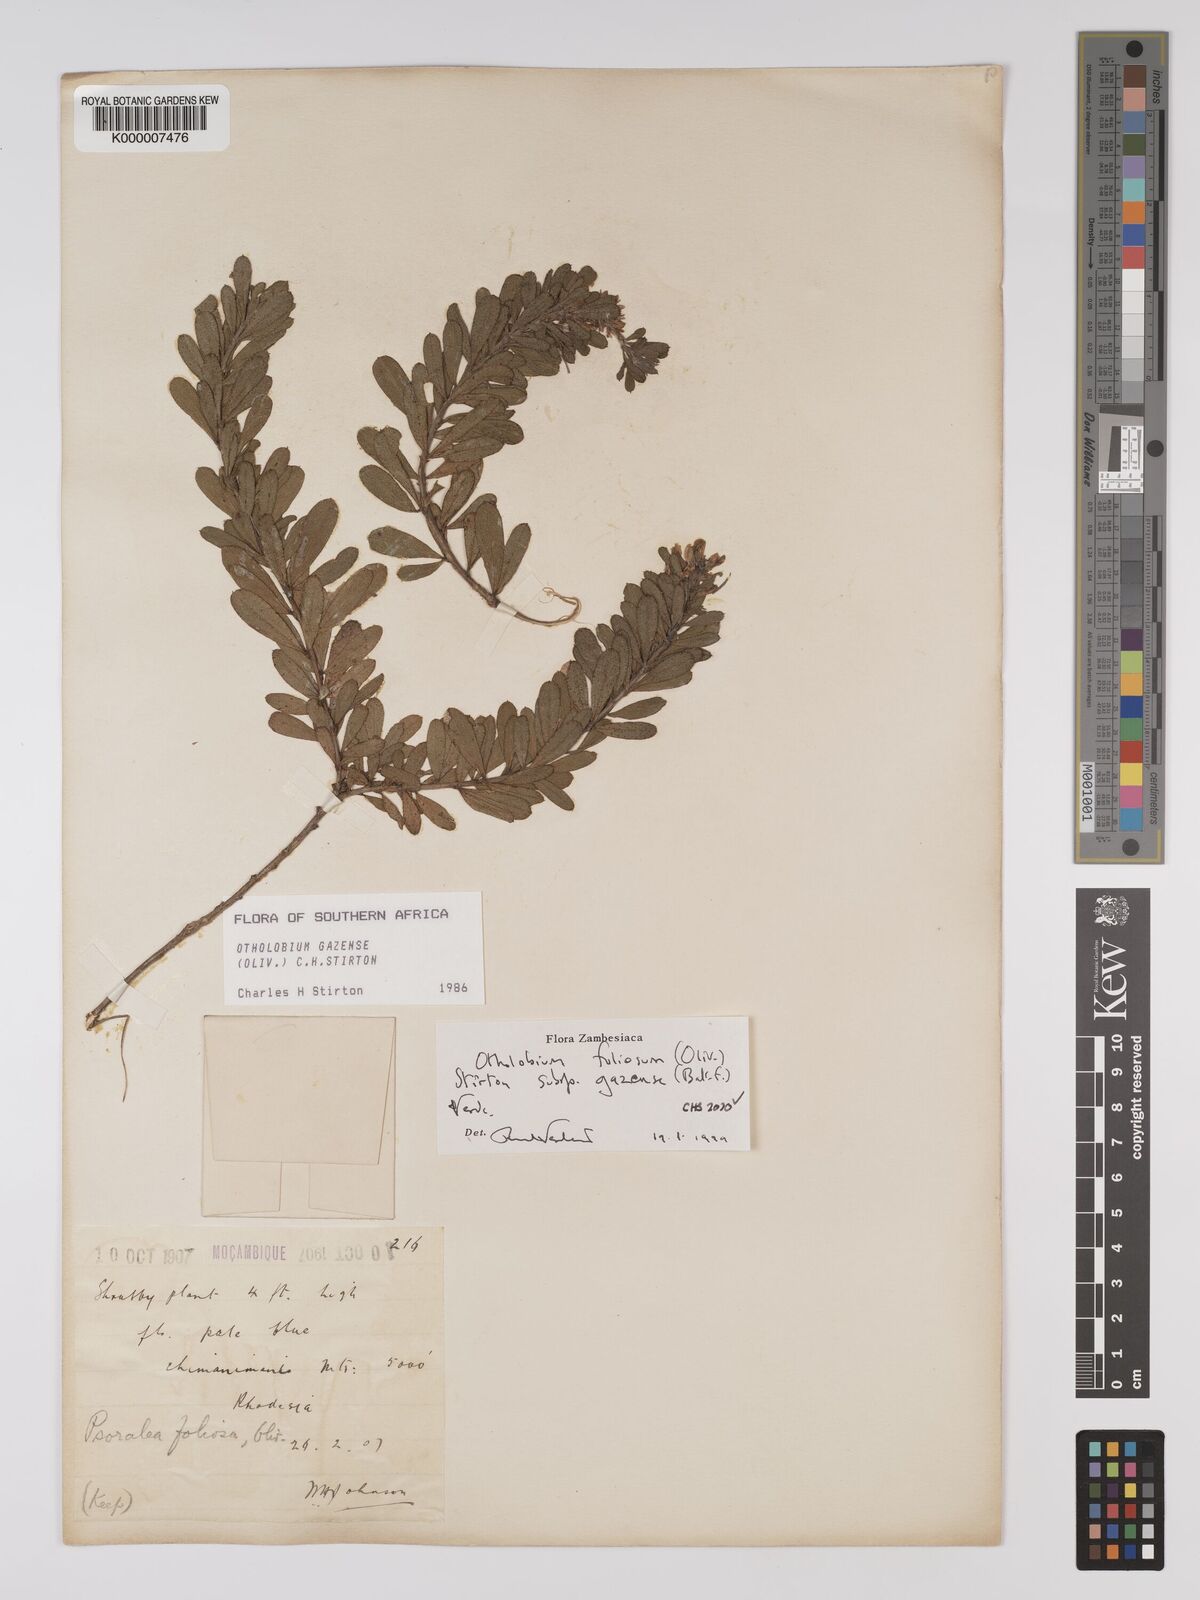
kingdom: Plantae
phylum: Tracheophyta
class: Magnoliopsida
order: Fabales
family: Fabaceae
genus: Psoralea
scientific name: Psoralea foliosa
